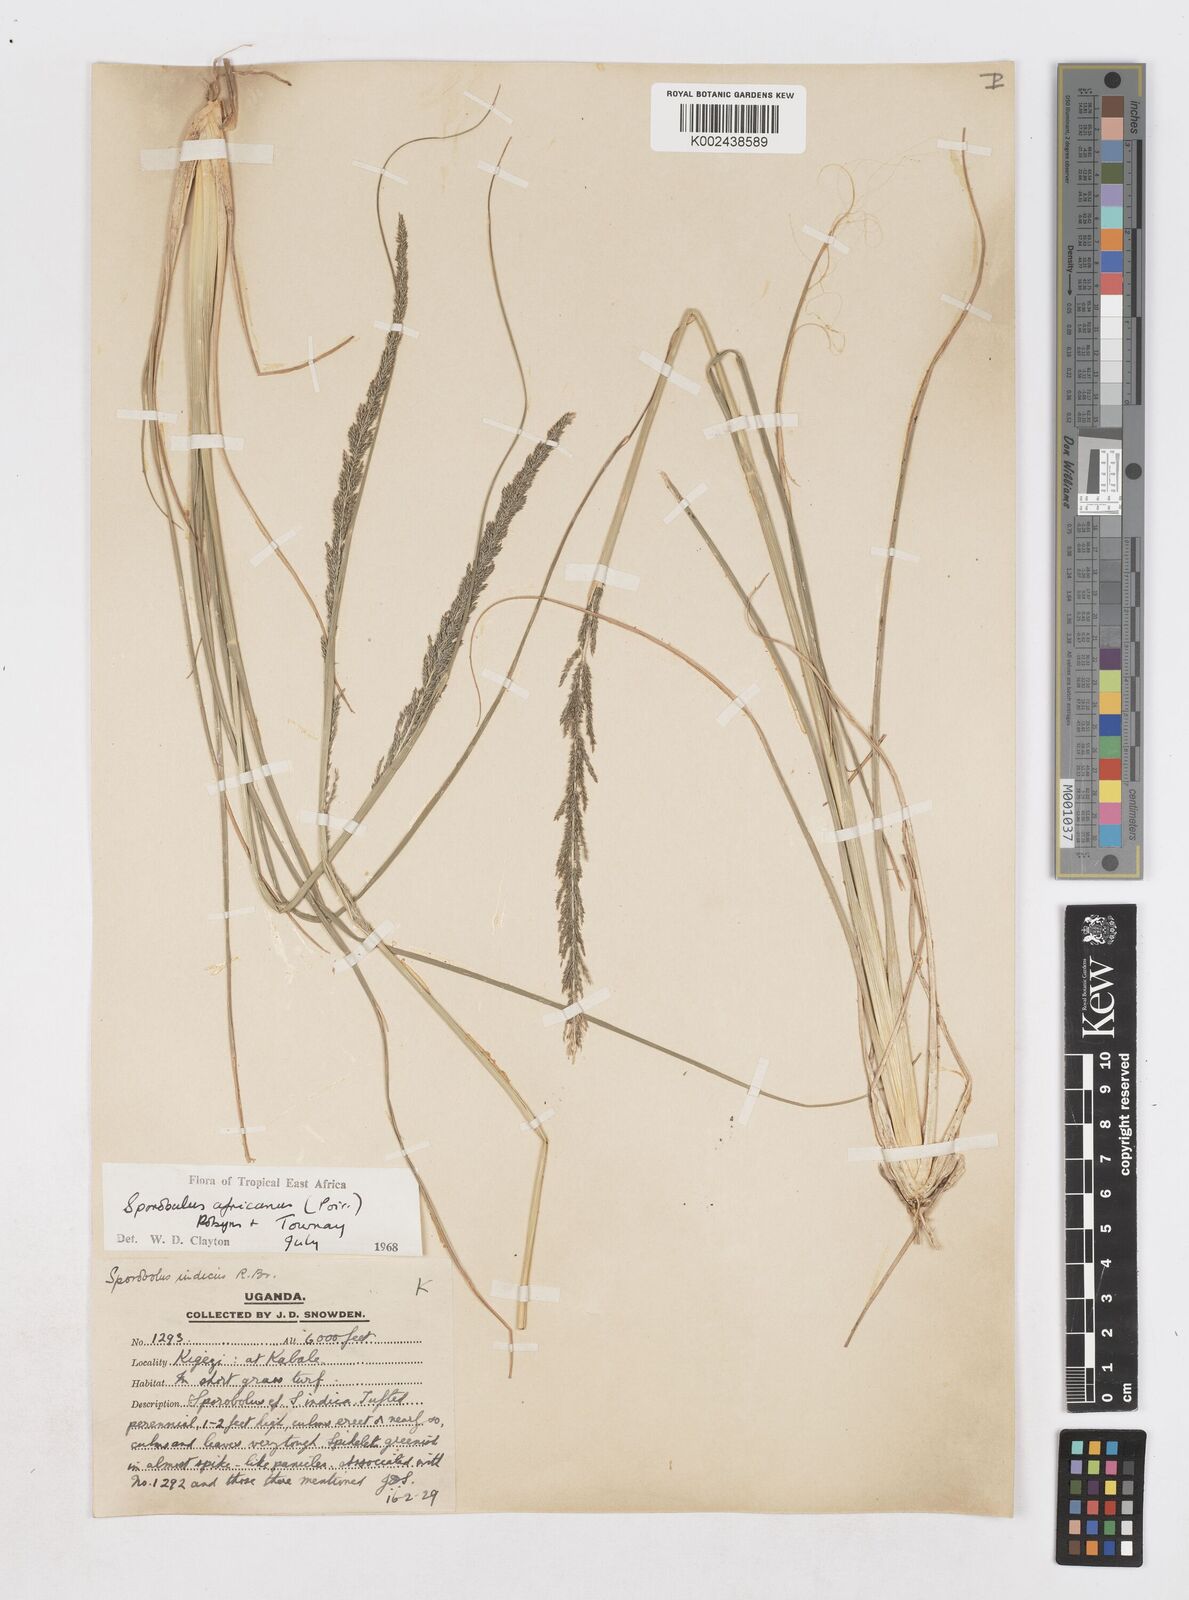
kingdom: Plantae
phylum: Tracheophyta
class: Liliopsida
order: Poales
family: Poaceae
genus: Sporobolus
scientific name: Sporobolus africanus
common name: African dropseed
